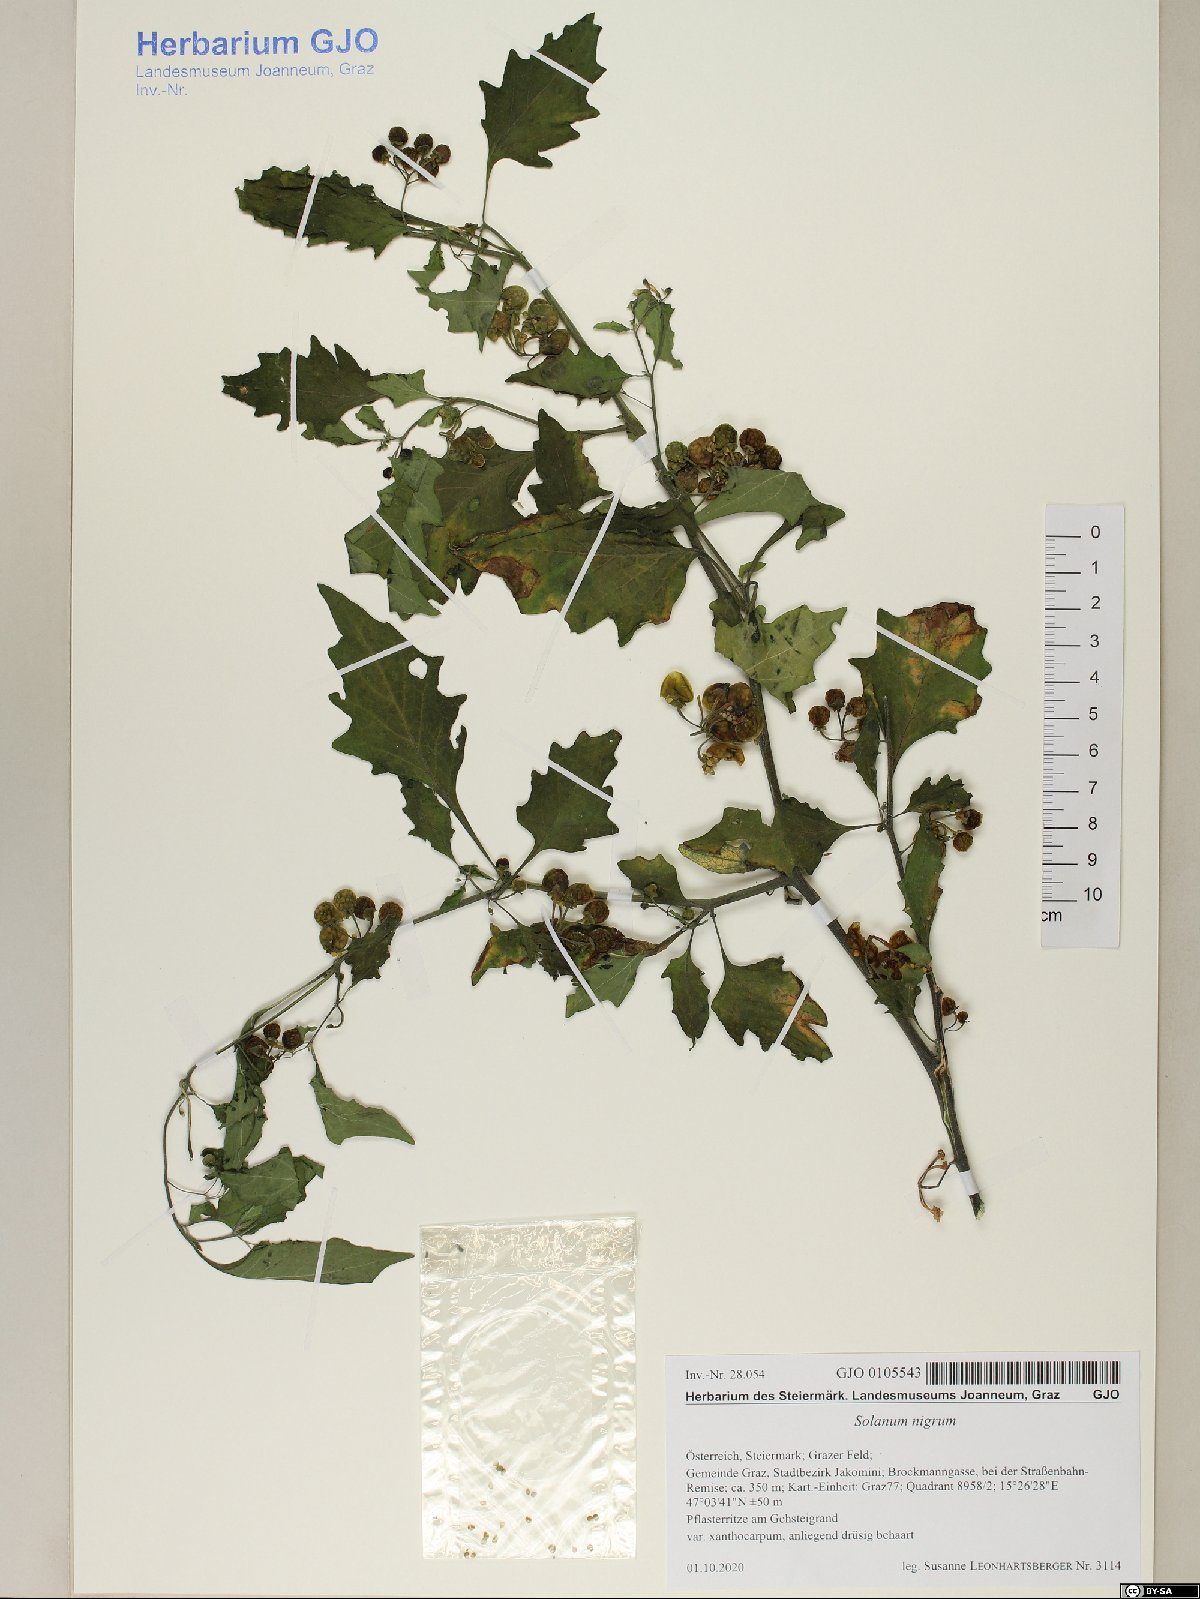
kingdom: Plantae
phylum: Tracheophyta
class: Magnoliopsida
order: Solanales
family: Solanaceae
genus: Solanum
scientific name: Solanum nigrum
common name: Black nightshade
